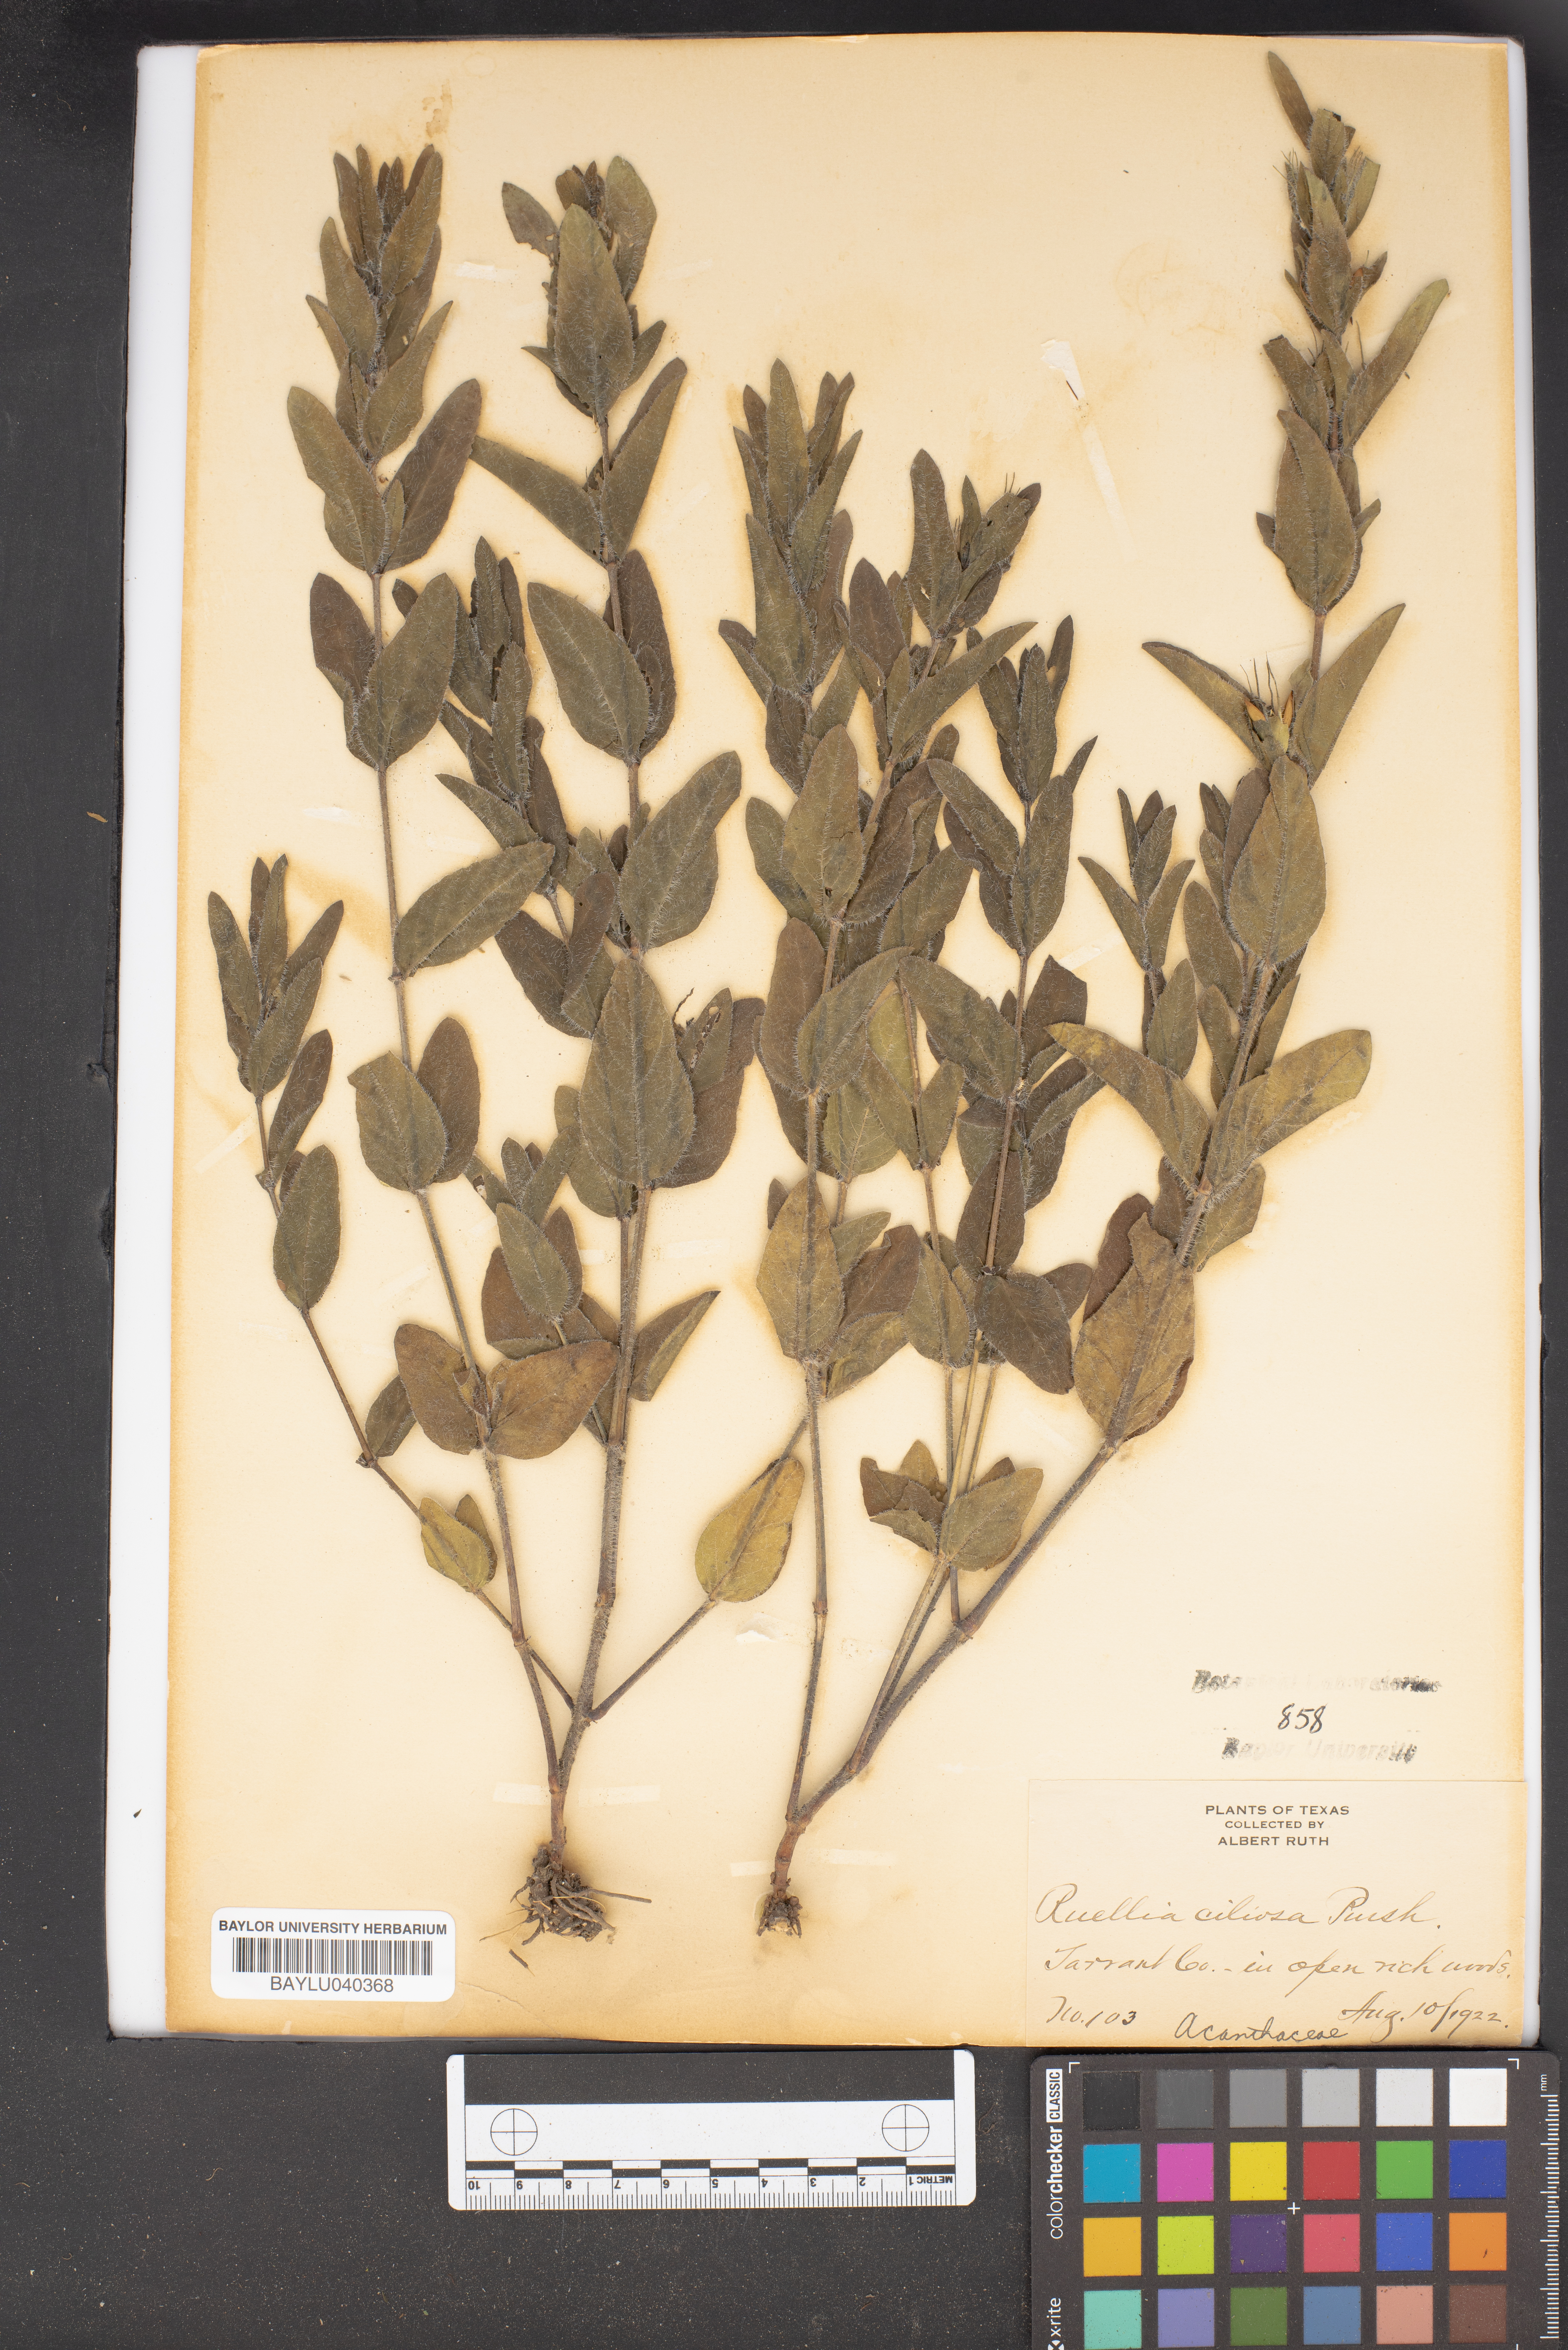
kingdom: Plantae
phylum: Tracheophyta
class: Magnoliopsida
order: Lamiales
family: Acanthaceae
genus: Ruellia
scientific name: Ruellia caroliniensis
